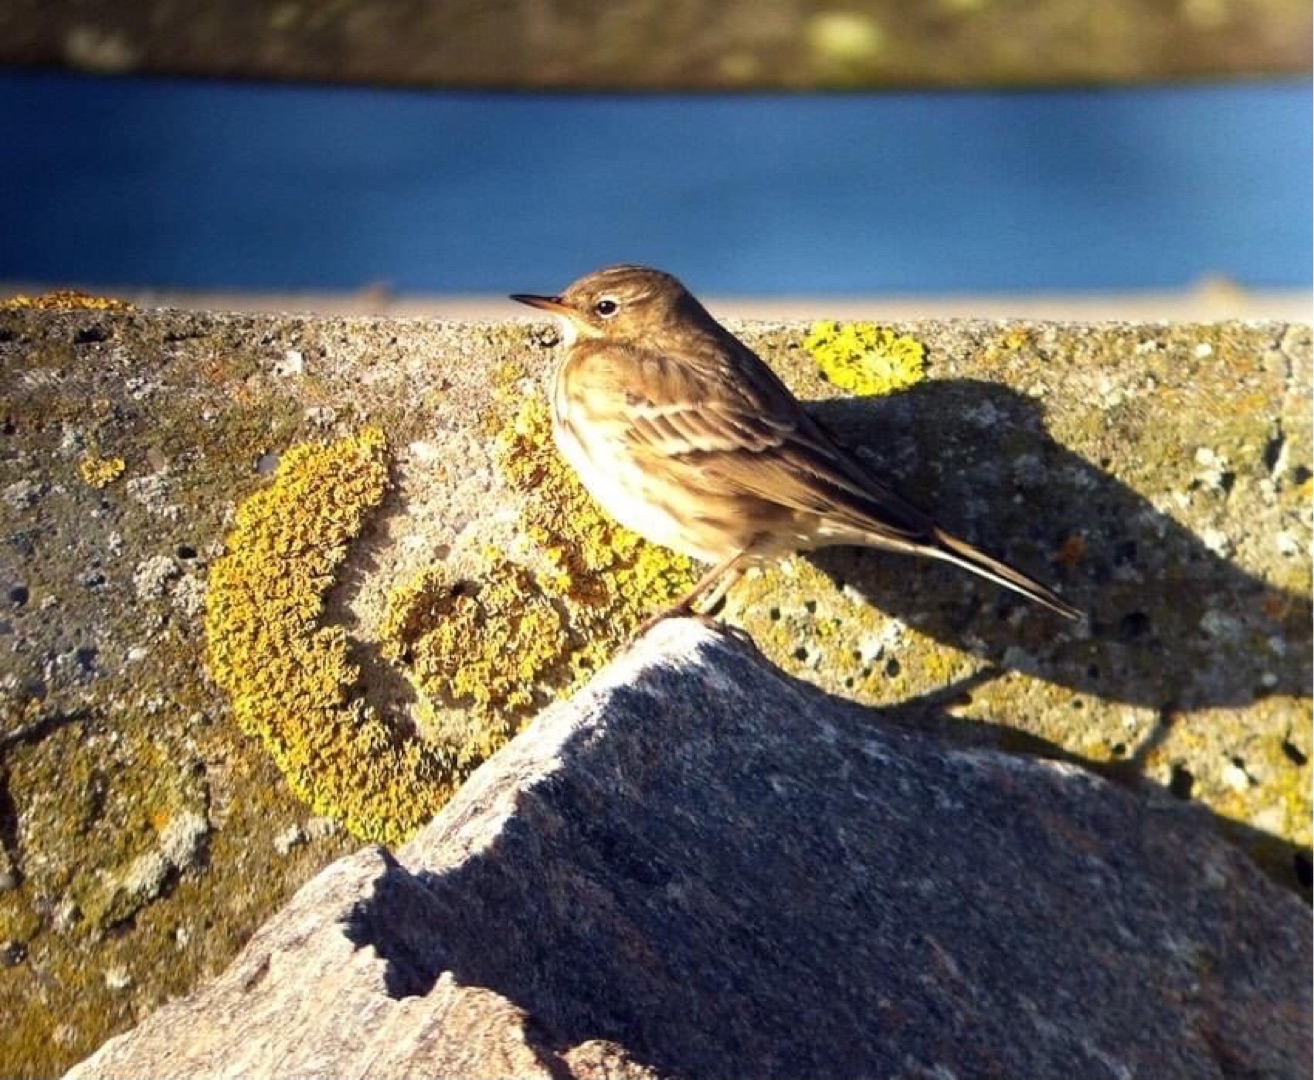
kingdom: Animalia
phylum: Chordata
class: Aves
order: Passeriformes
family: Motacillidae
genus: Anthus
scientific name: Anthus petrosus
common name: Skærpiber
